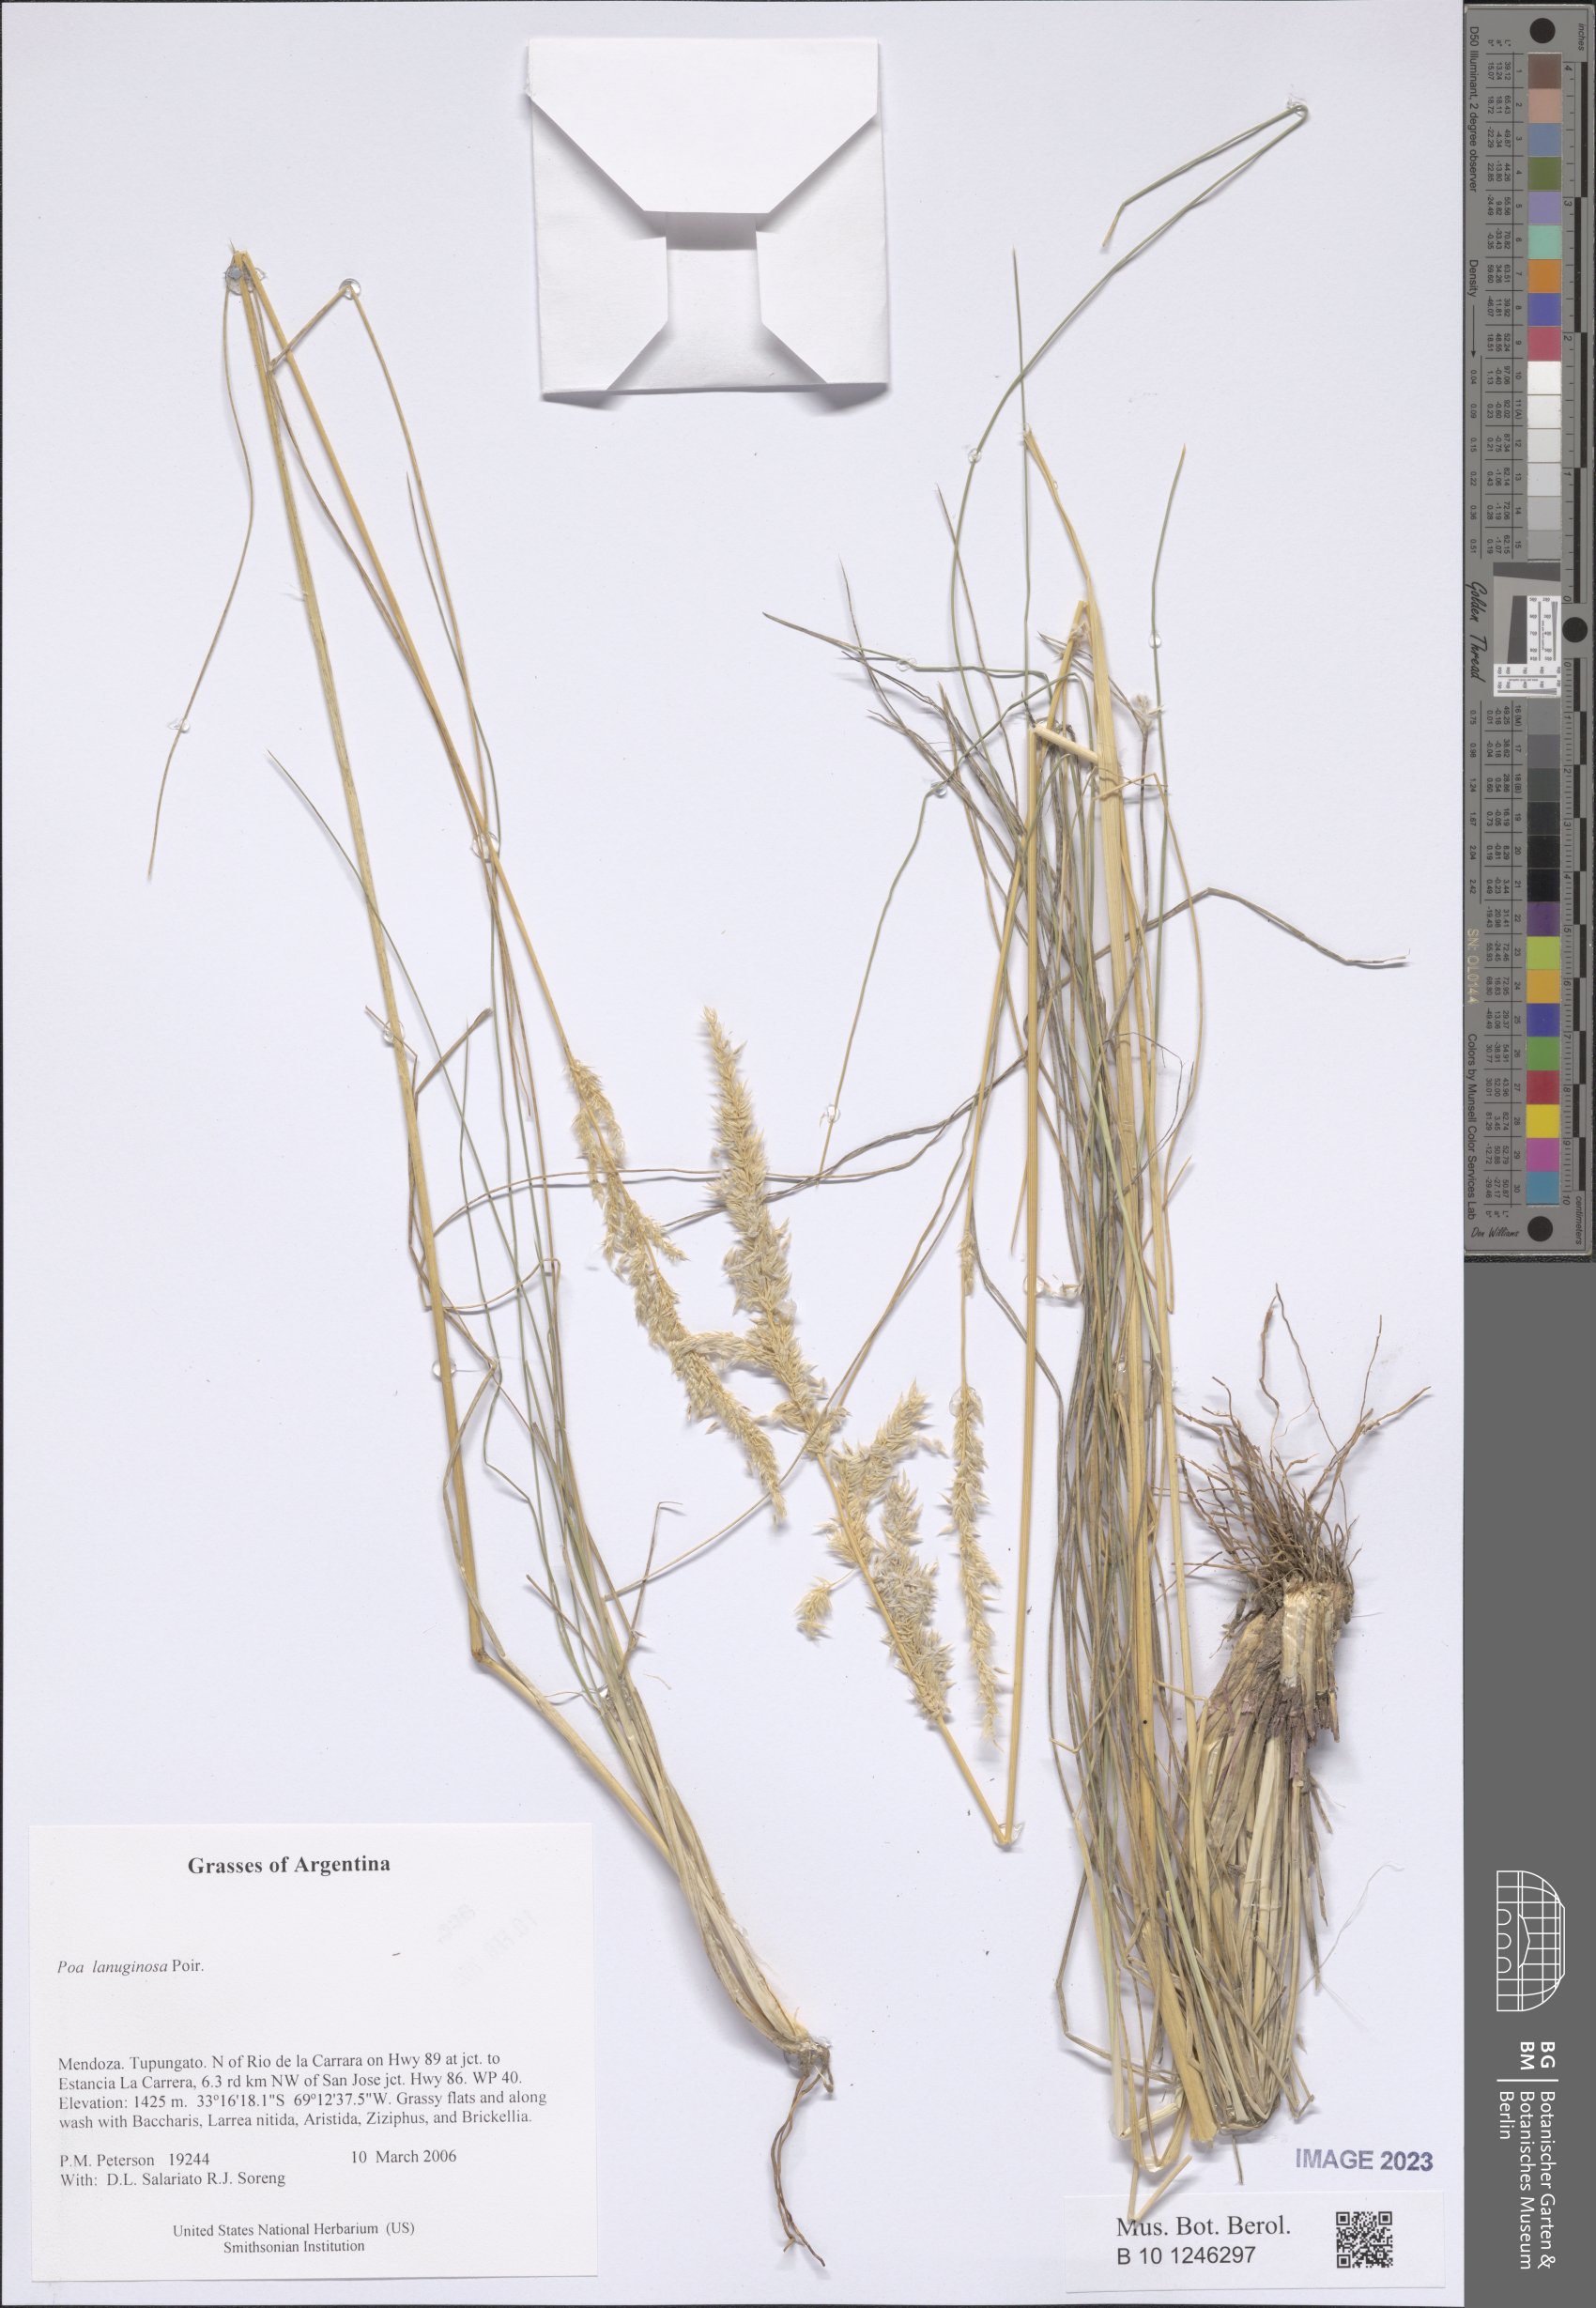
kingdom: Plantae
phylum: Tracheophyta
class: Liliopsida
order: Poales
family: Poaceae
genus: Poa
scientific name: Poa lanuginosa
